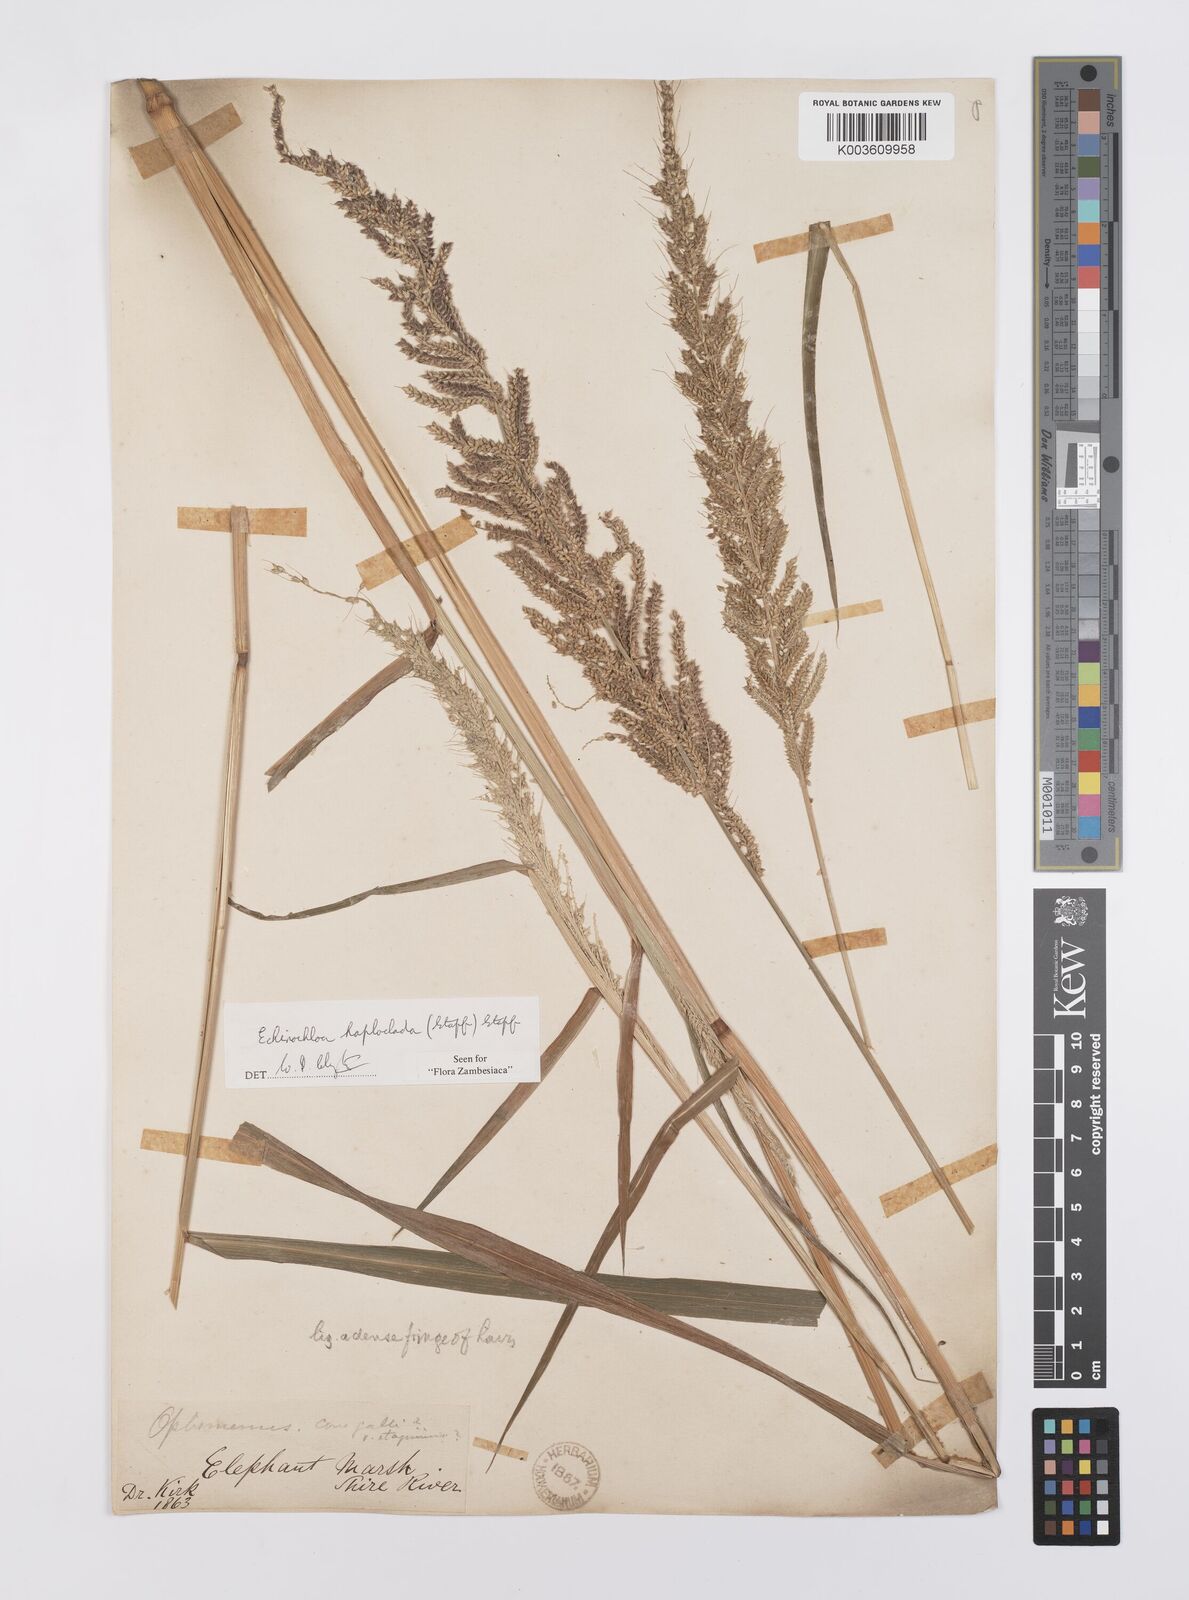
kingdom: Plantae
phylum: Tracheophyta
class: Liliopsida
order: Poales
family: Poaceae
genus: Echinochloa
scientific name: Echinochloa haploclada
